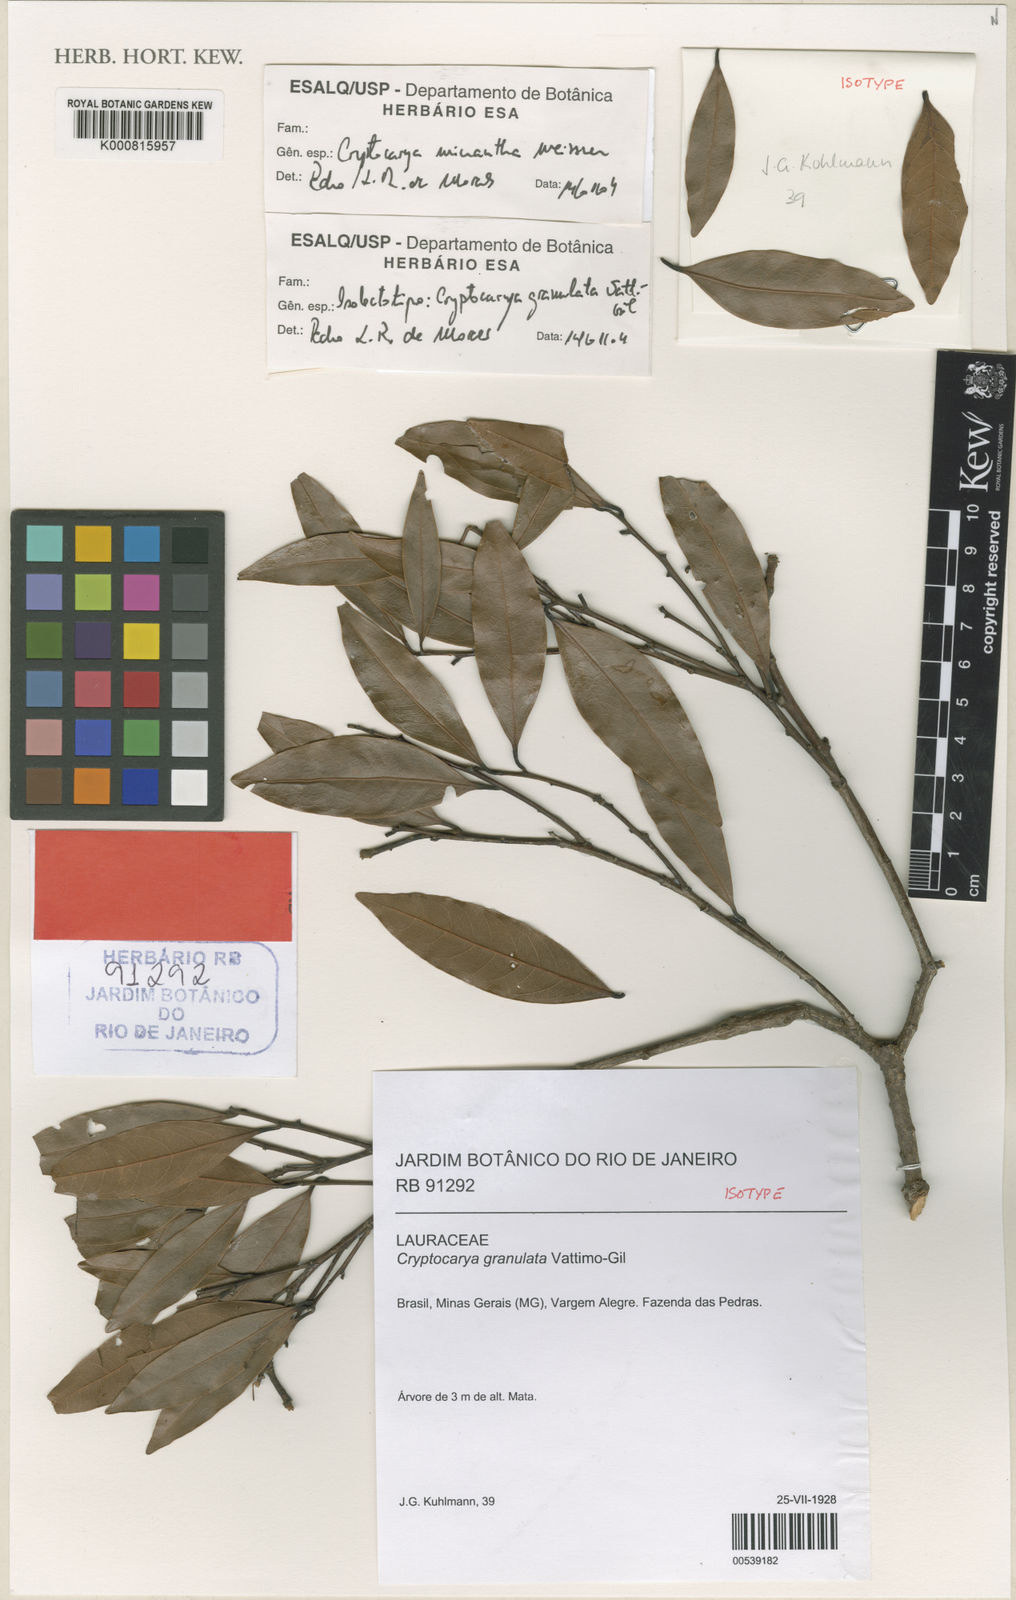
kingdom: Plantae
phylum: Tracheophyta
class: Magnoliopsida
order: Laurales
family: Lauraceae
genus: Cryptocarya
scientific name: Cryptocarya micrantha
